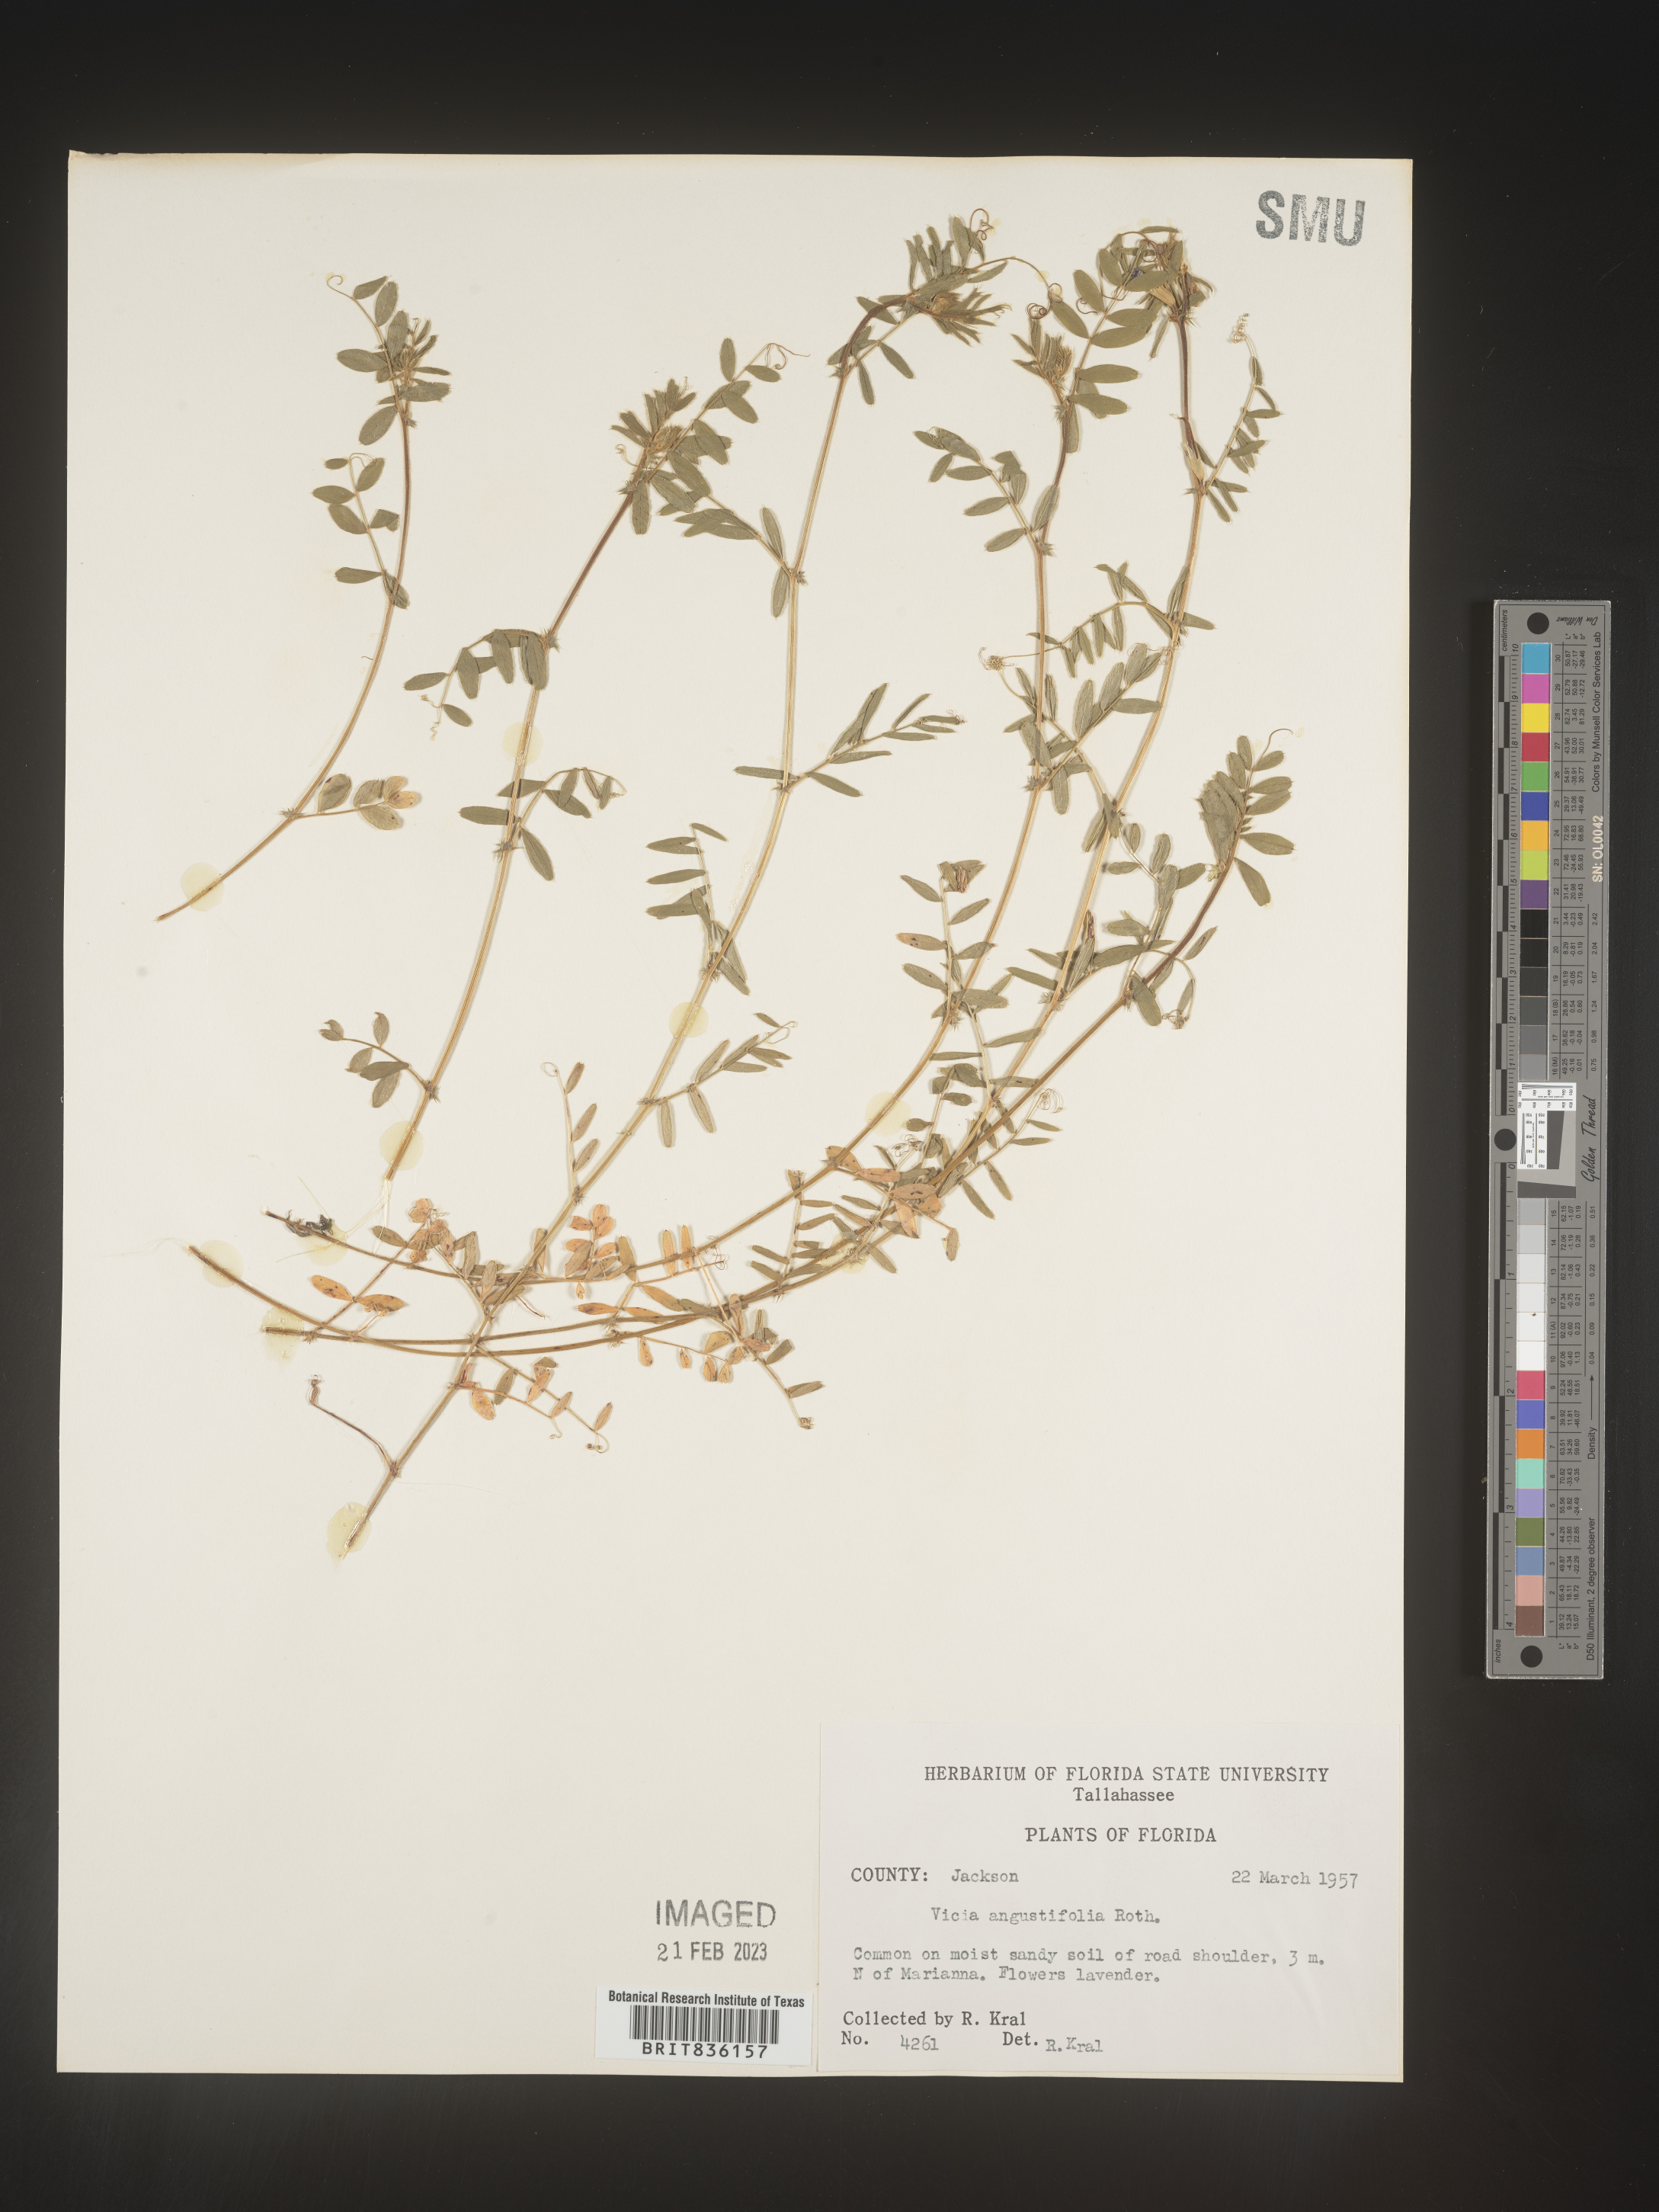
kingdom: Plantae
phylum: Tracheophyta
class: Magnoliopsida
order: Fabales
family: Fabaceae
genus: Vicia
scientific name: Vicia sativa
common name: Garden vetch
